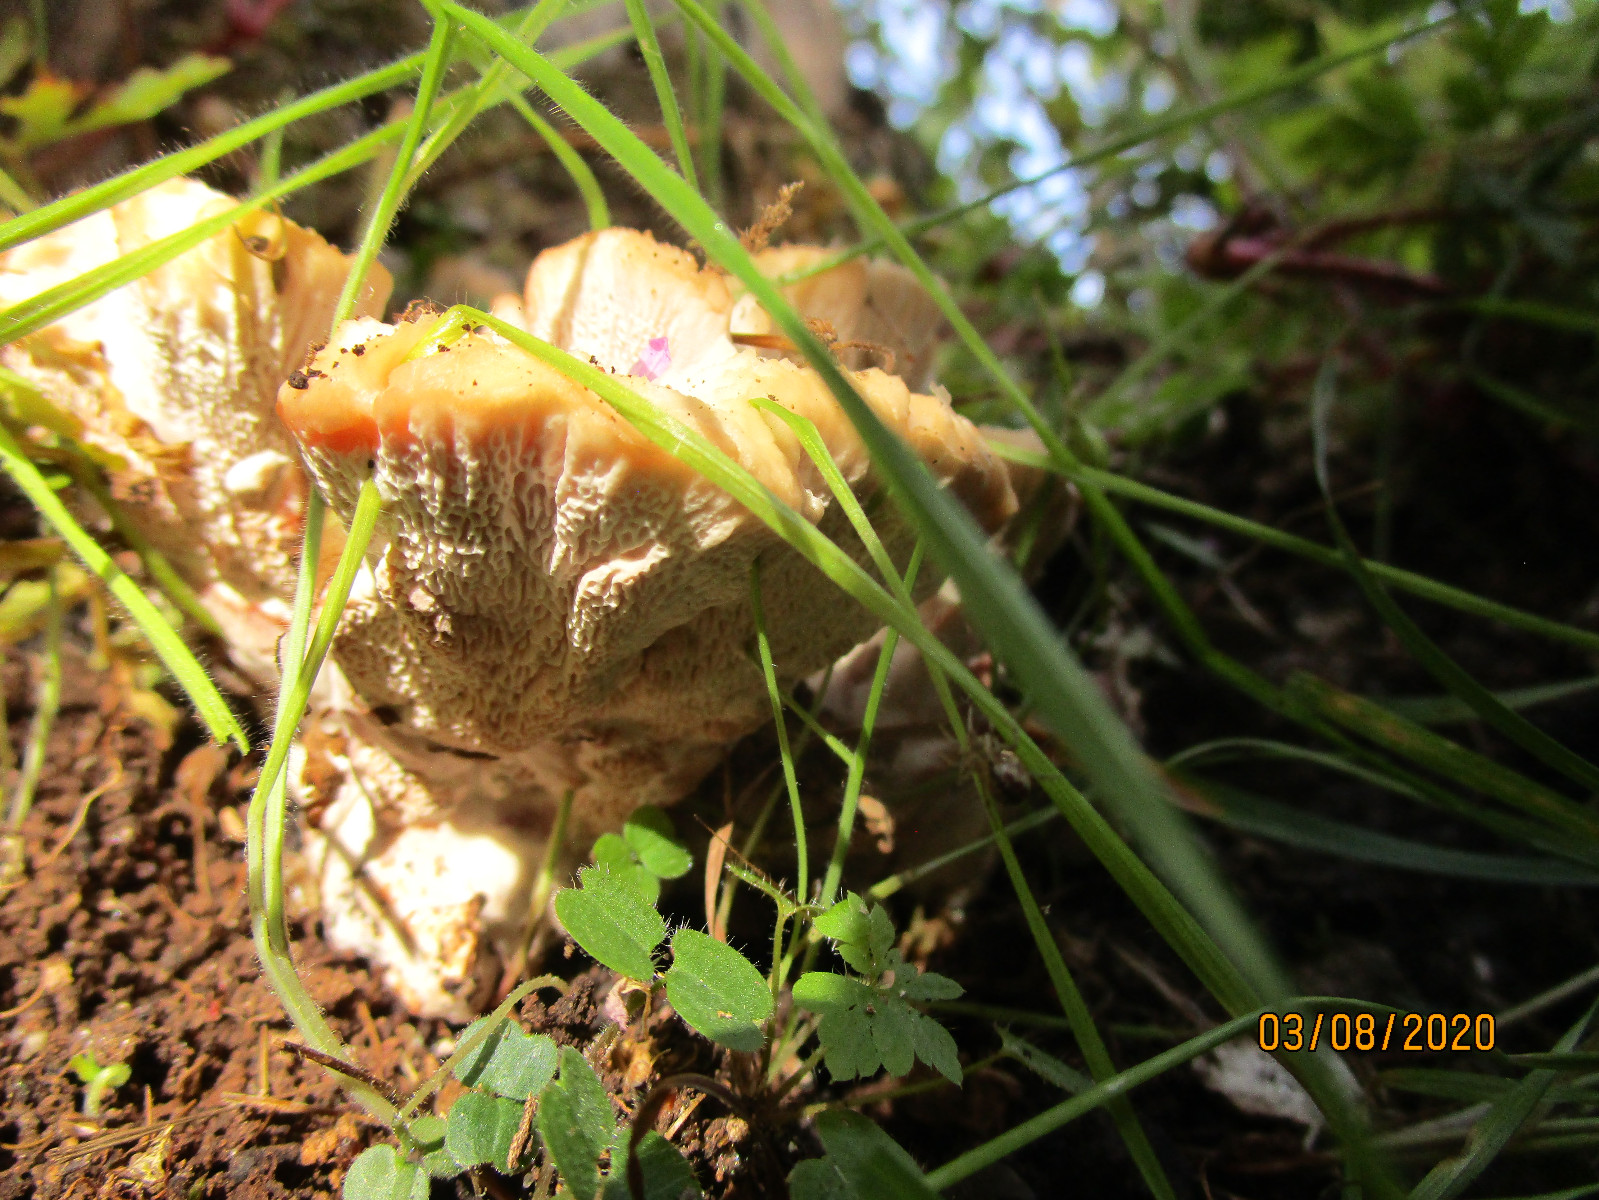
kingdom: Fungi
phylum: Basidiomycota
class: Agaricomycetes
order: Polyporales
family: Podoscyphaceae
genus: Abortiporus
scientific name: Abortiporus biennis
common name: rødmende pjalteporesvamp
